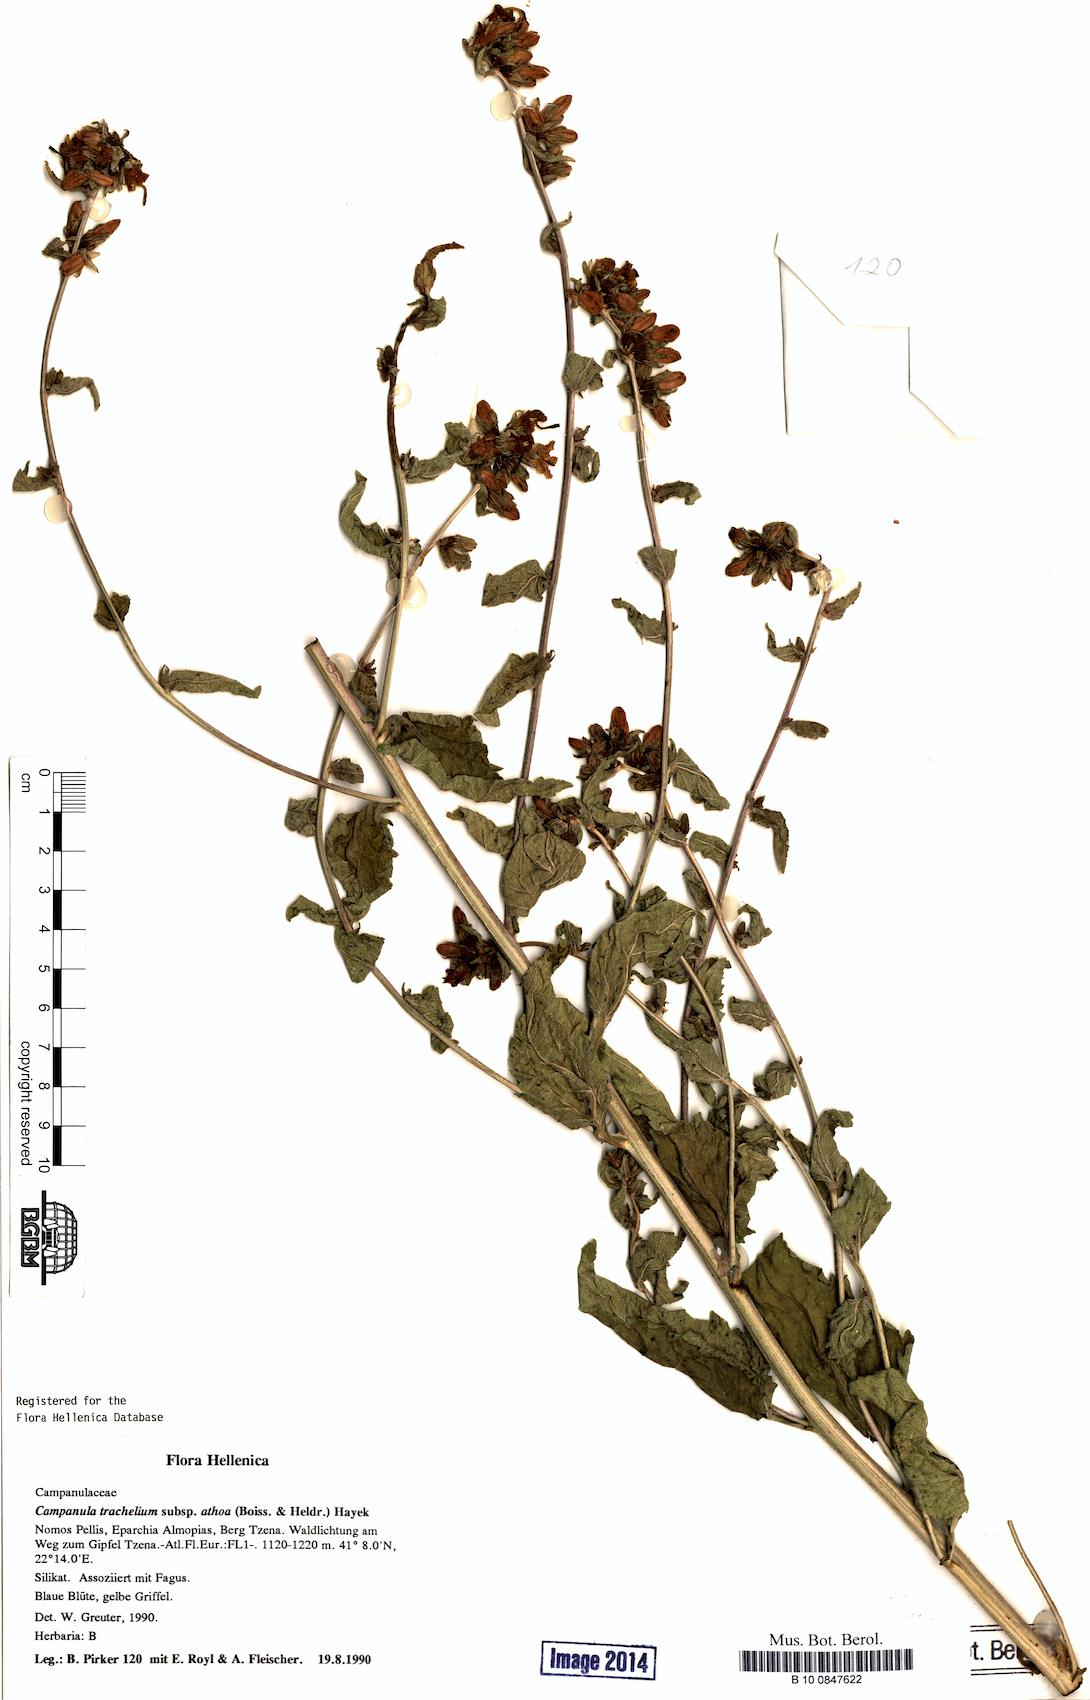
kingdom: Plantae
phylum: Tracheophyta
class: Magnoliopsida
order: Asterales
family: Campanulaceae
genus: Campanula
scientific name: Campanula trachelium
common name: Nettle-leaved bellflower
